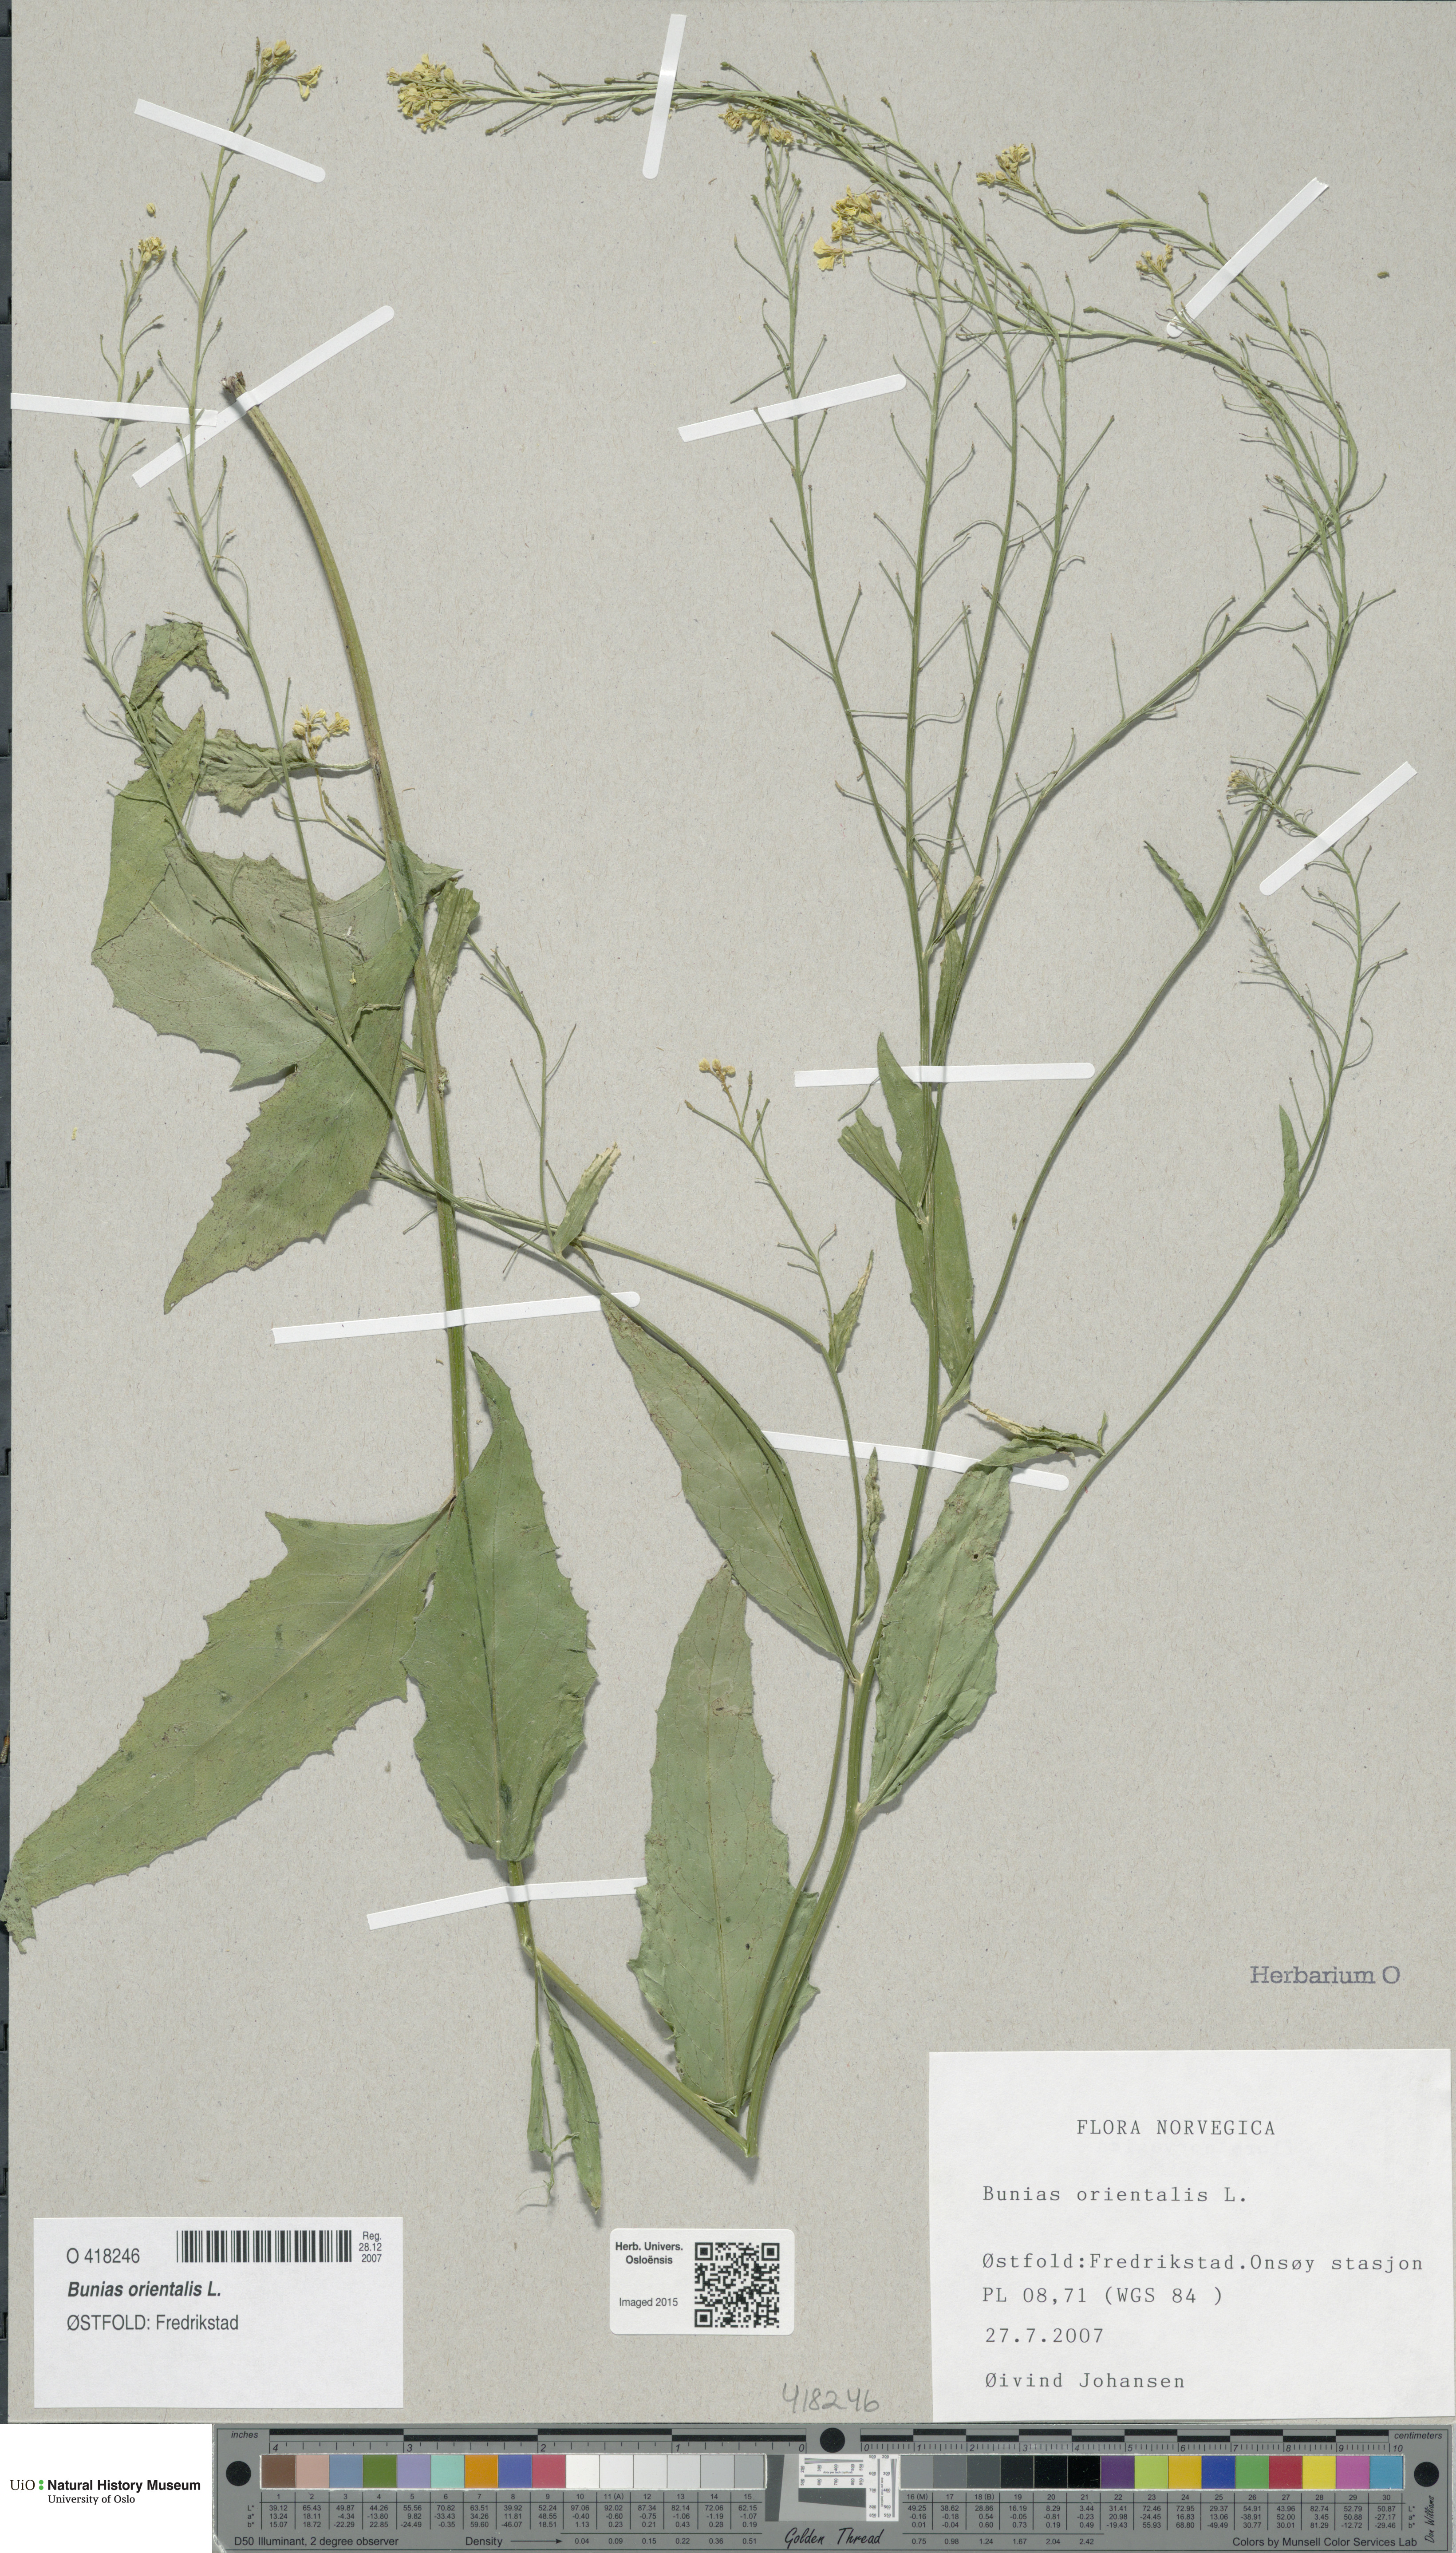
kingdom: Plantae
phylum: Tracheophyta
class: Magnoliopsida
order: Brassicales
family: Brassicaceae
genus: Bunias
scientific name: Bunias orientalis
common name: Warty-cabbage
